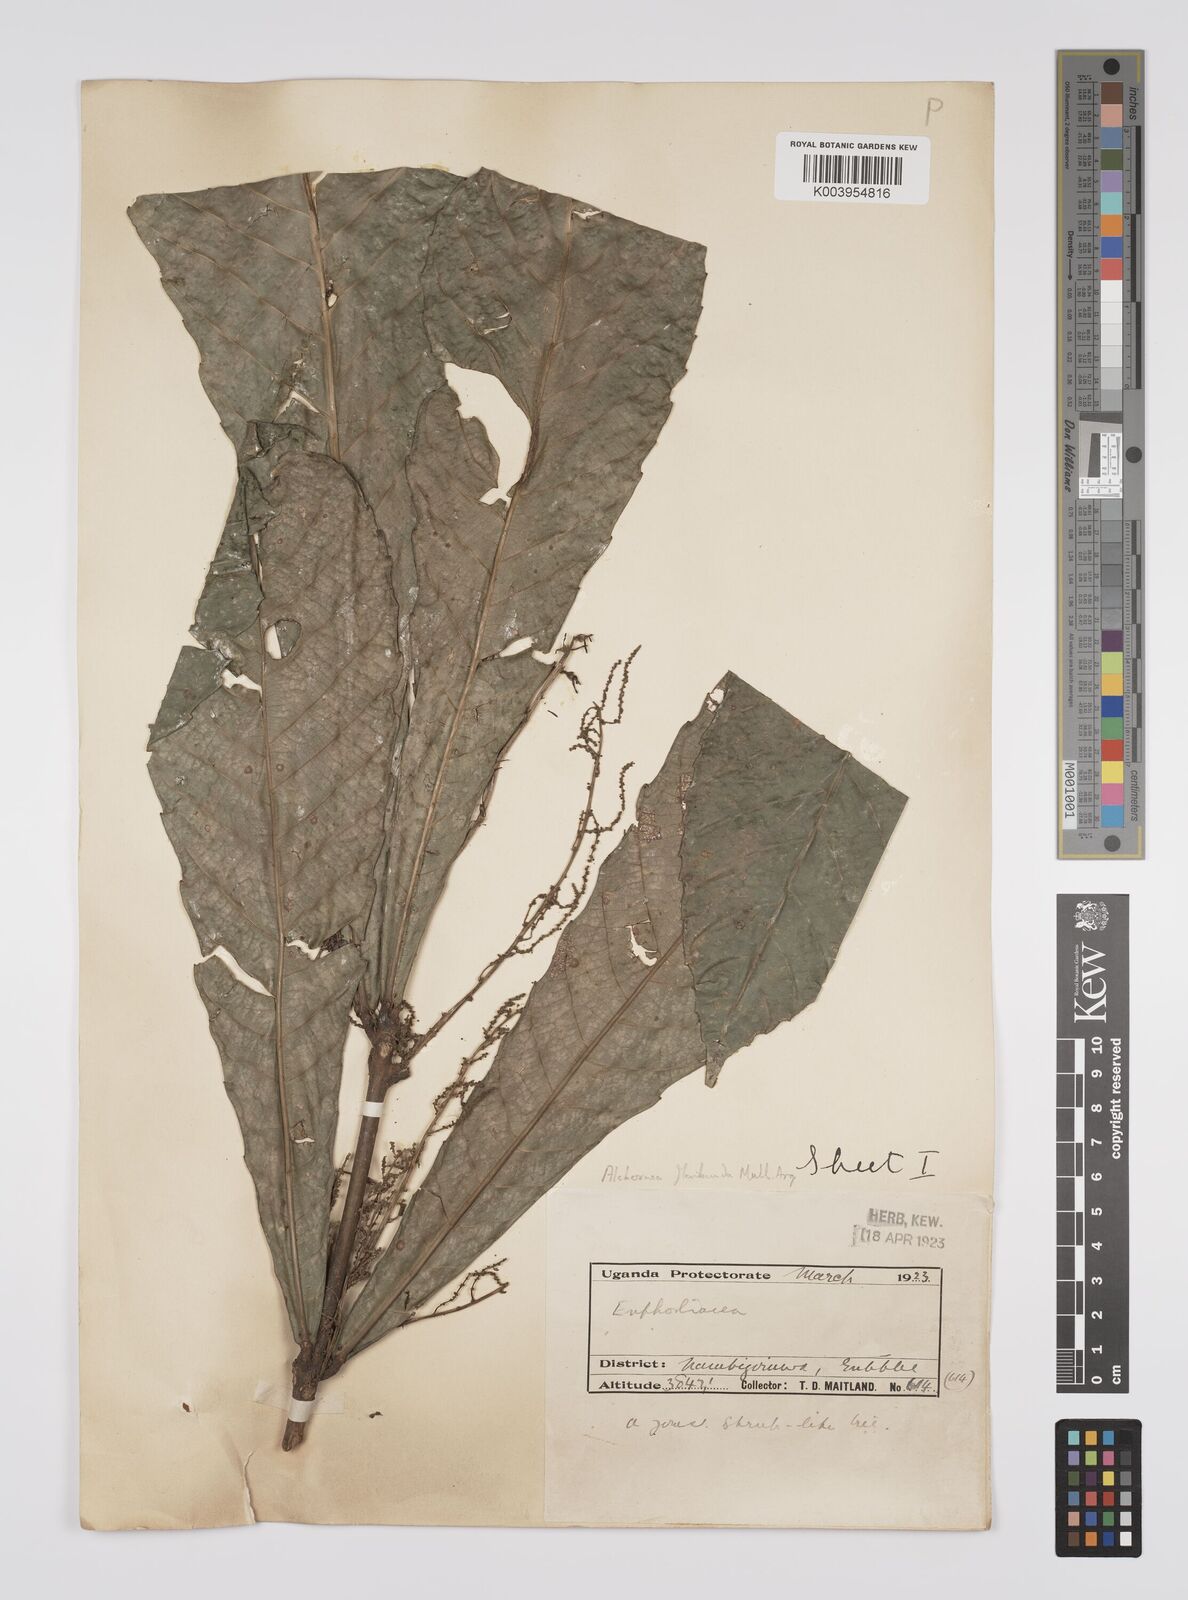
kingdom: Plantae
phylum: Tracheophyta
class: Magnoliopsida
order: Malpighiales
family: Euphorbiaceae
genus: Alchornea
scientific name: Alchornea floribunda
